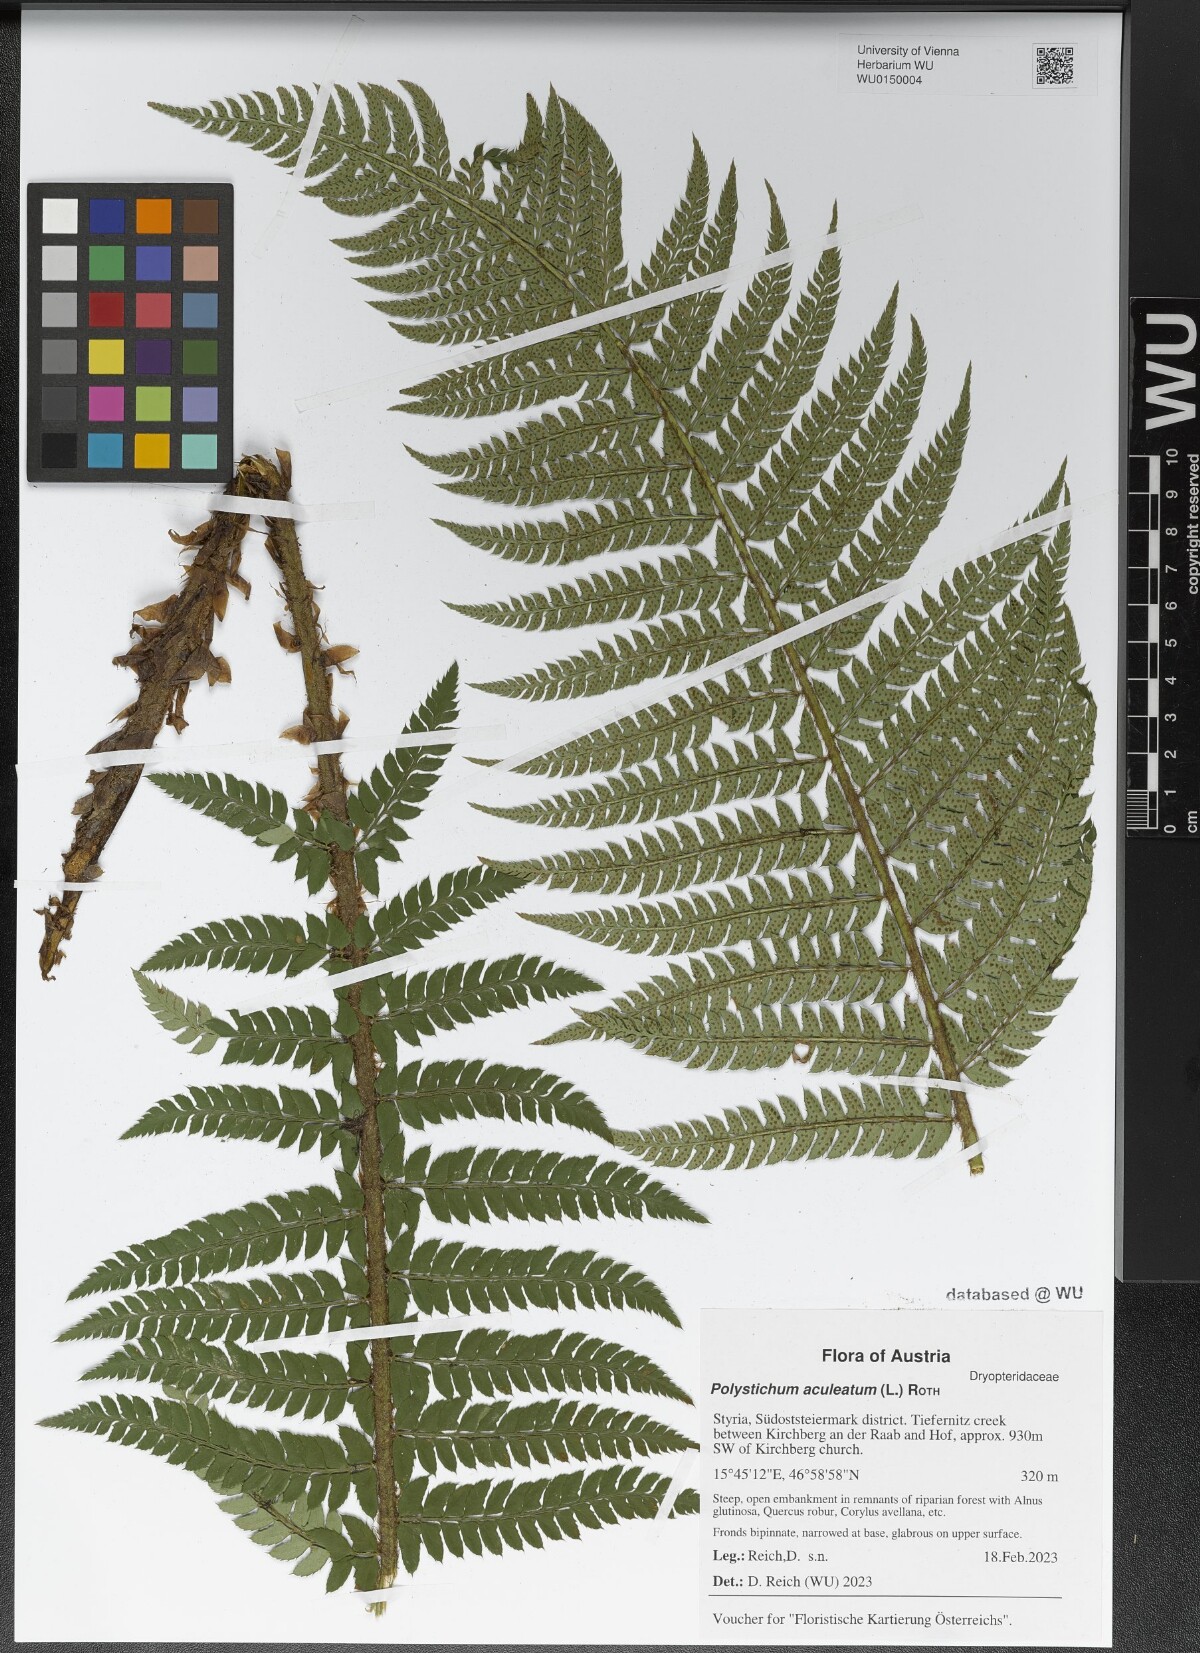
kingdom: Plantae
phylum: Tracheophyta
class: Polypodiopsida
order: Polypodiales
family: Dryopteridaceae
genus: Polystichum
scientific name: Polystichum aculeatum
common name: Hard shield-fern
